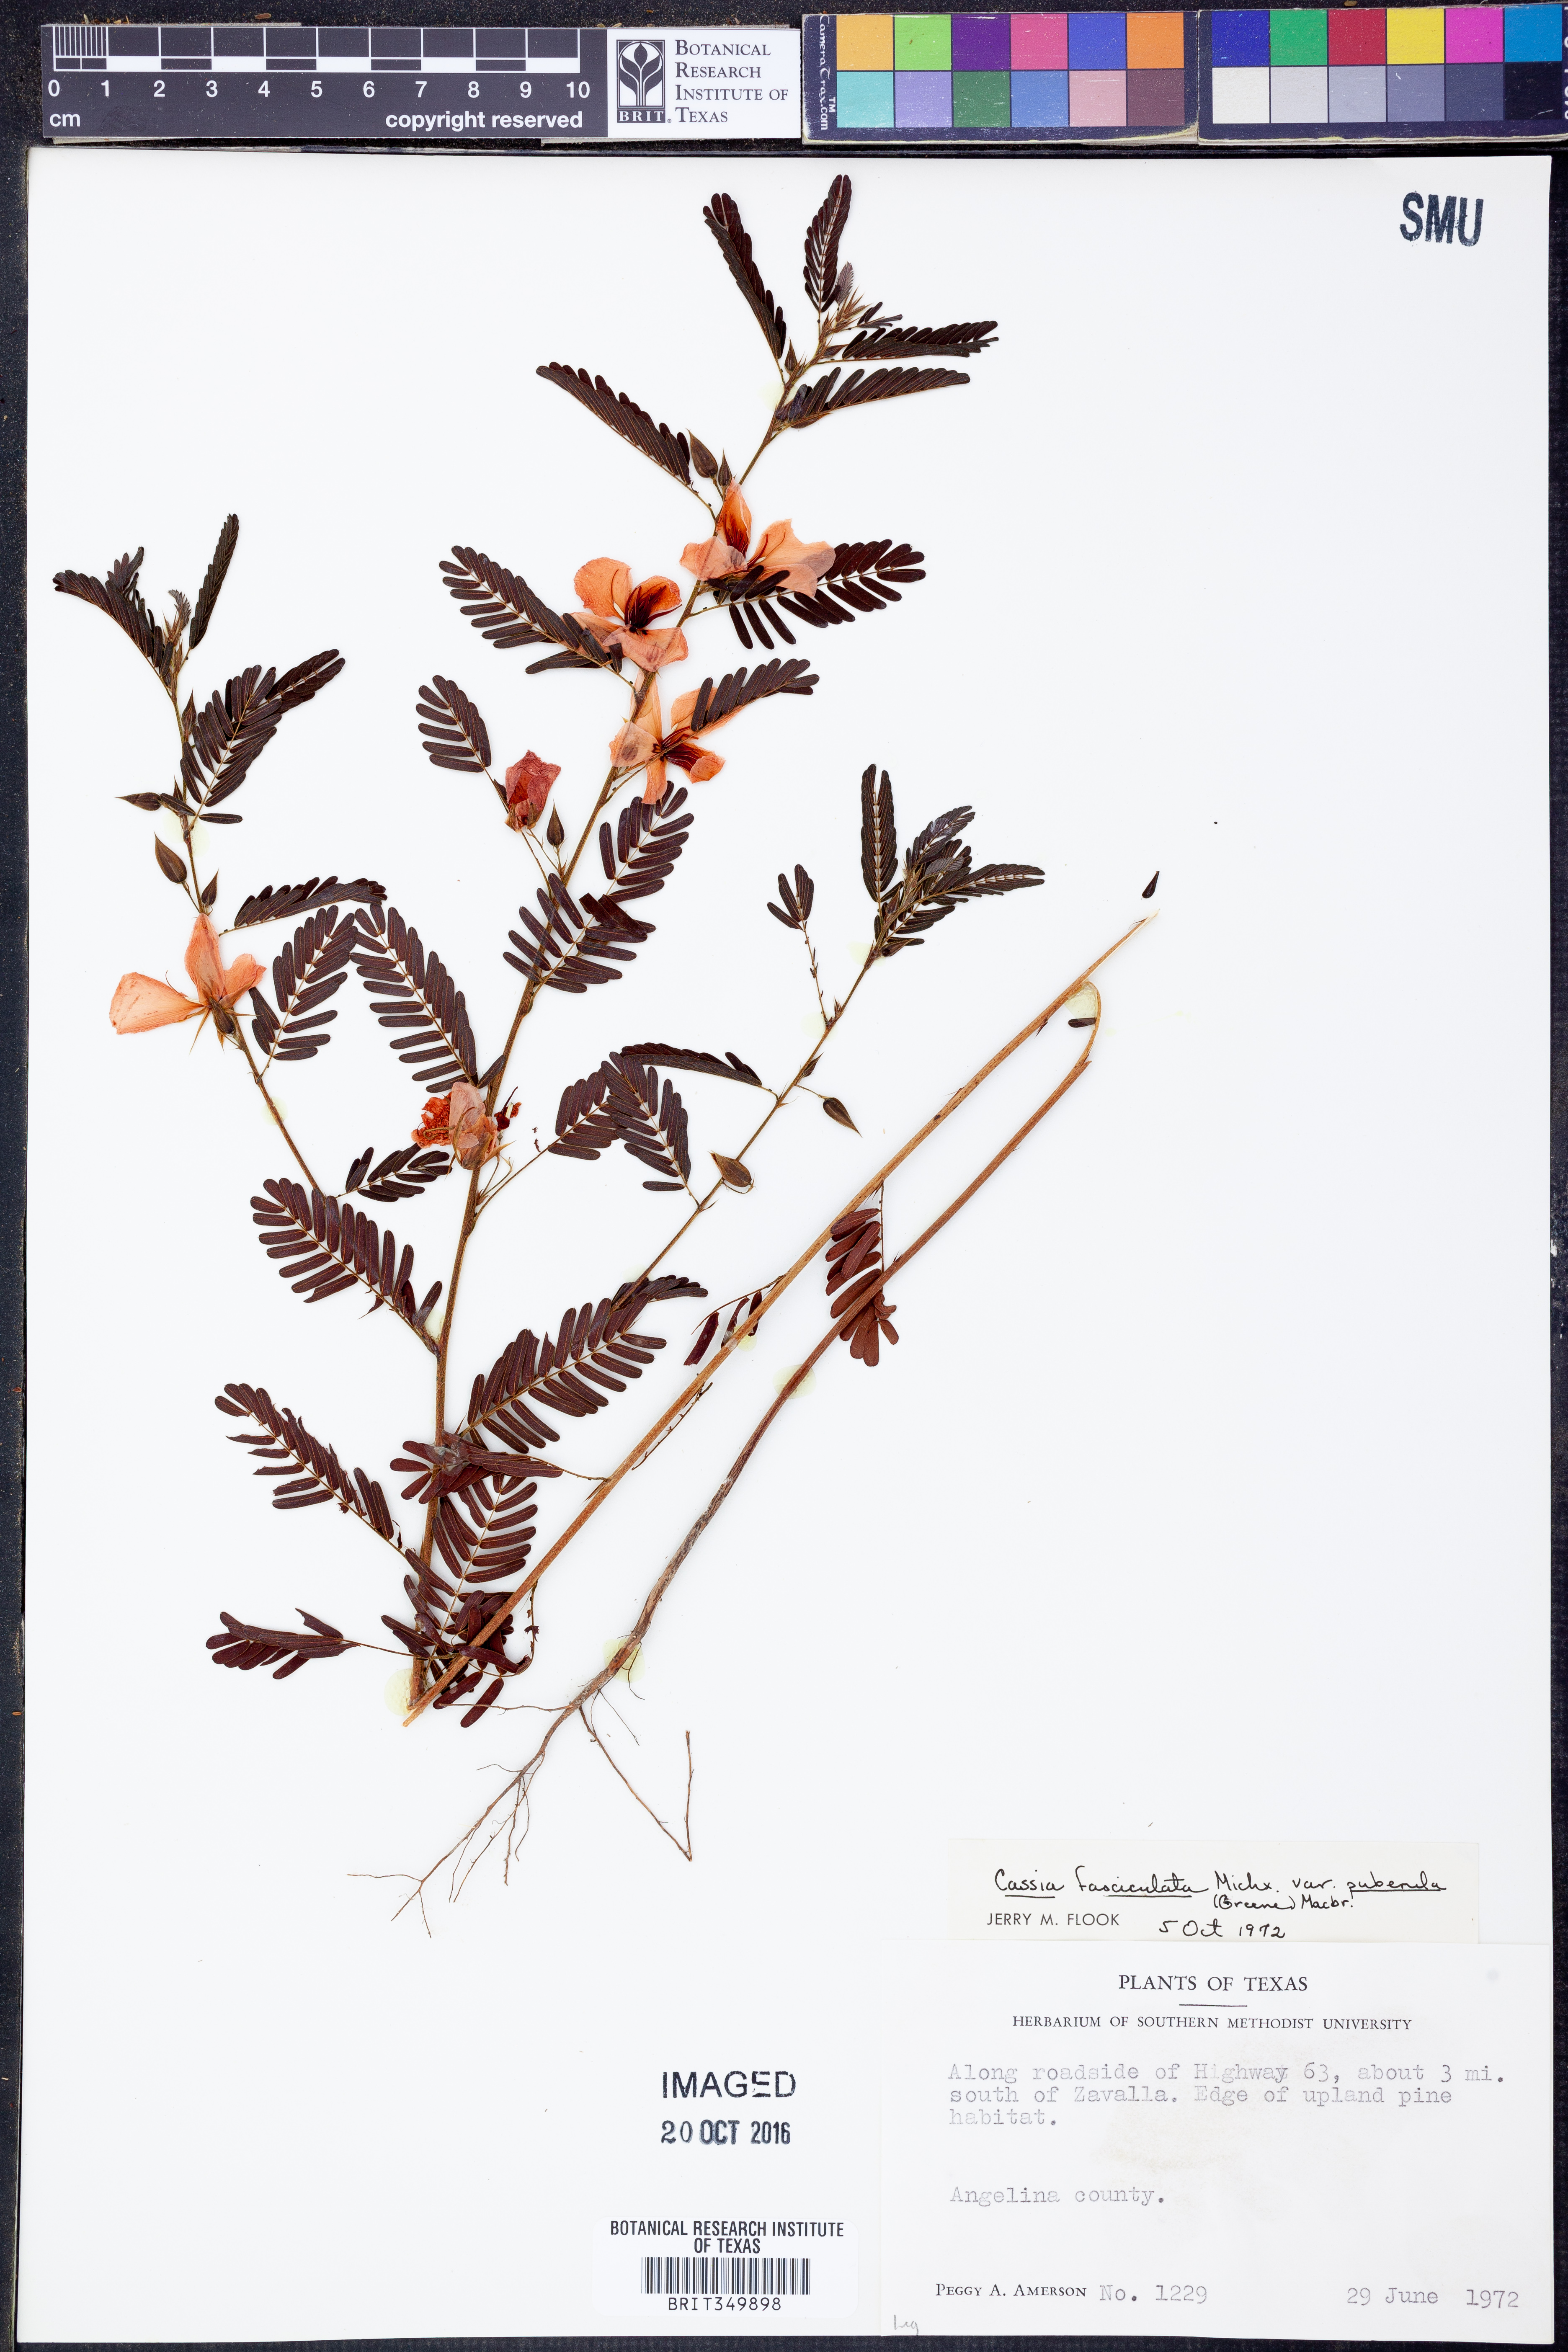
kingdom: Plantae
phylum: Tracheophyta
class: Magnoliopsida
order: Fabales
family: Fabaceae
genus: Chamaecrista
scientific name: Chamaecrista fasciculata
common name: Golden cassia
